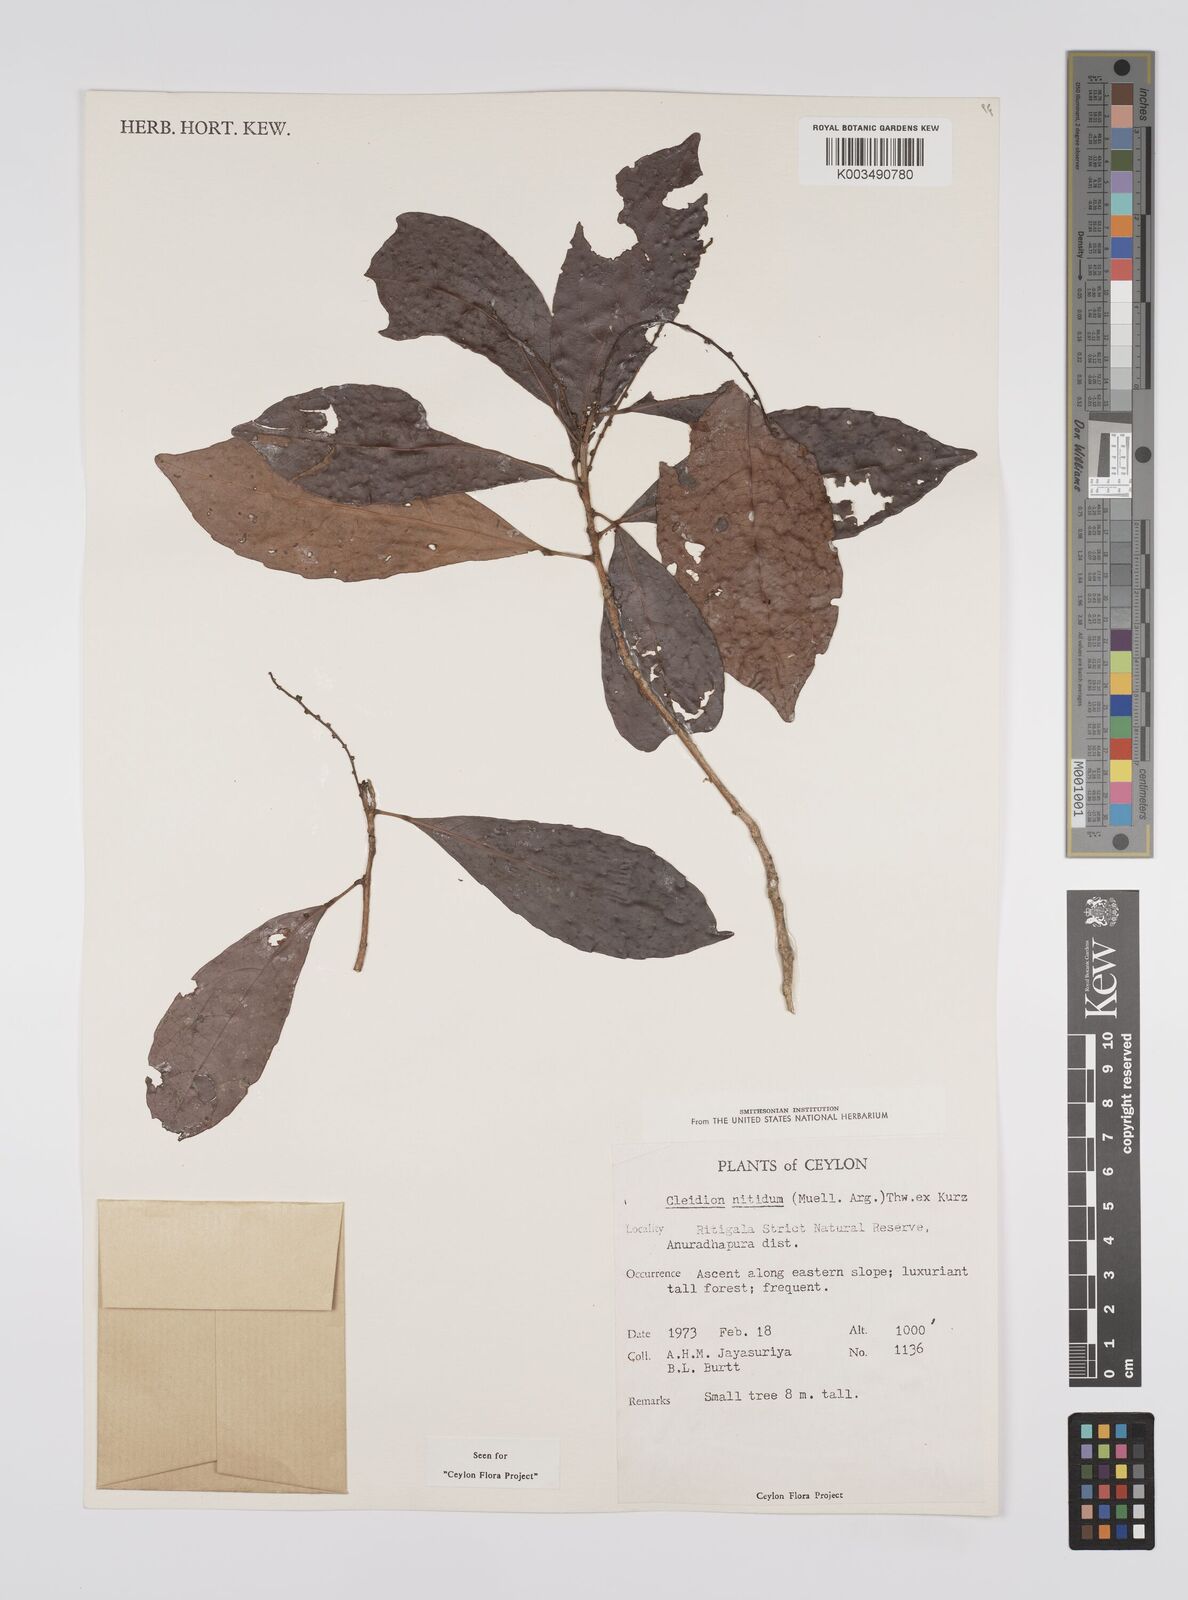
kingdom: Plantae
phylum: Tracheophyta
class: Magnoliopsida
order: Malpighiales
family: Euphorbiaceae
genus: Cleidion
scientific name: Cleidion nitidum
